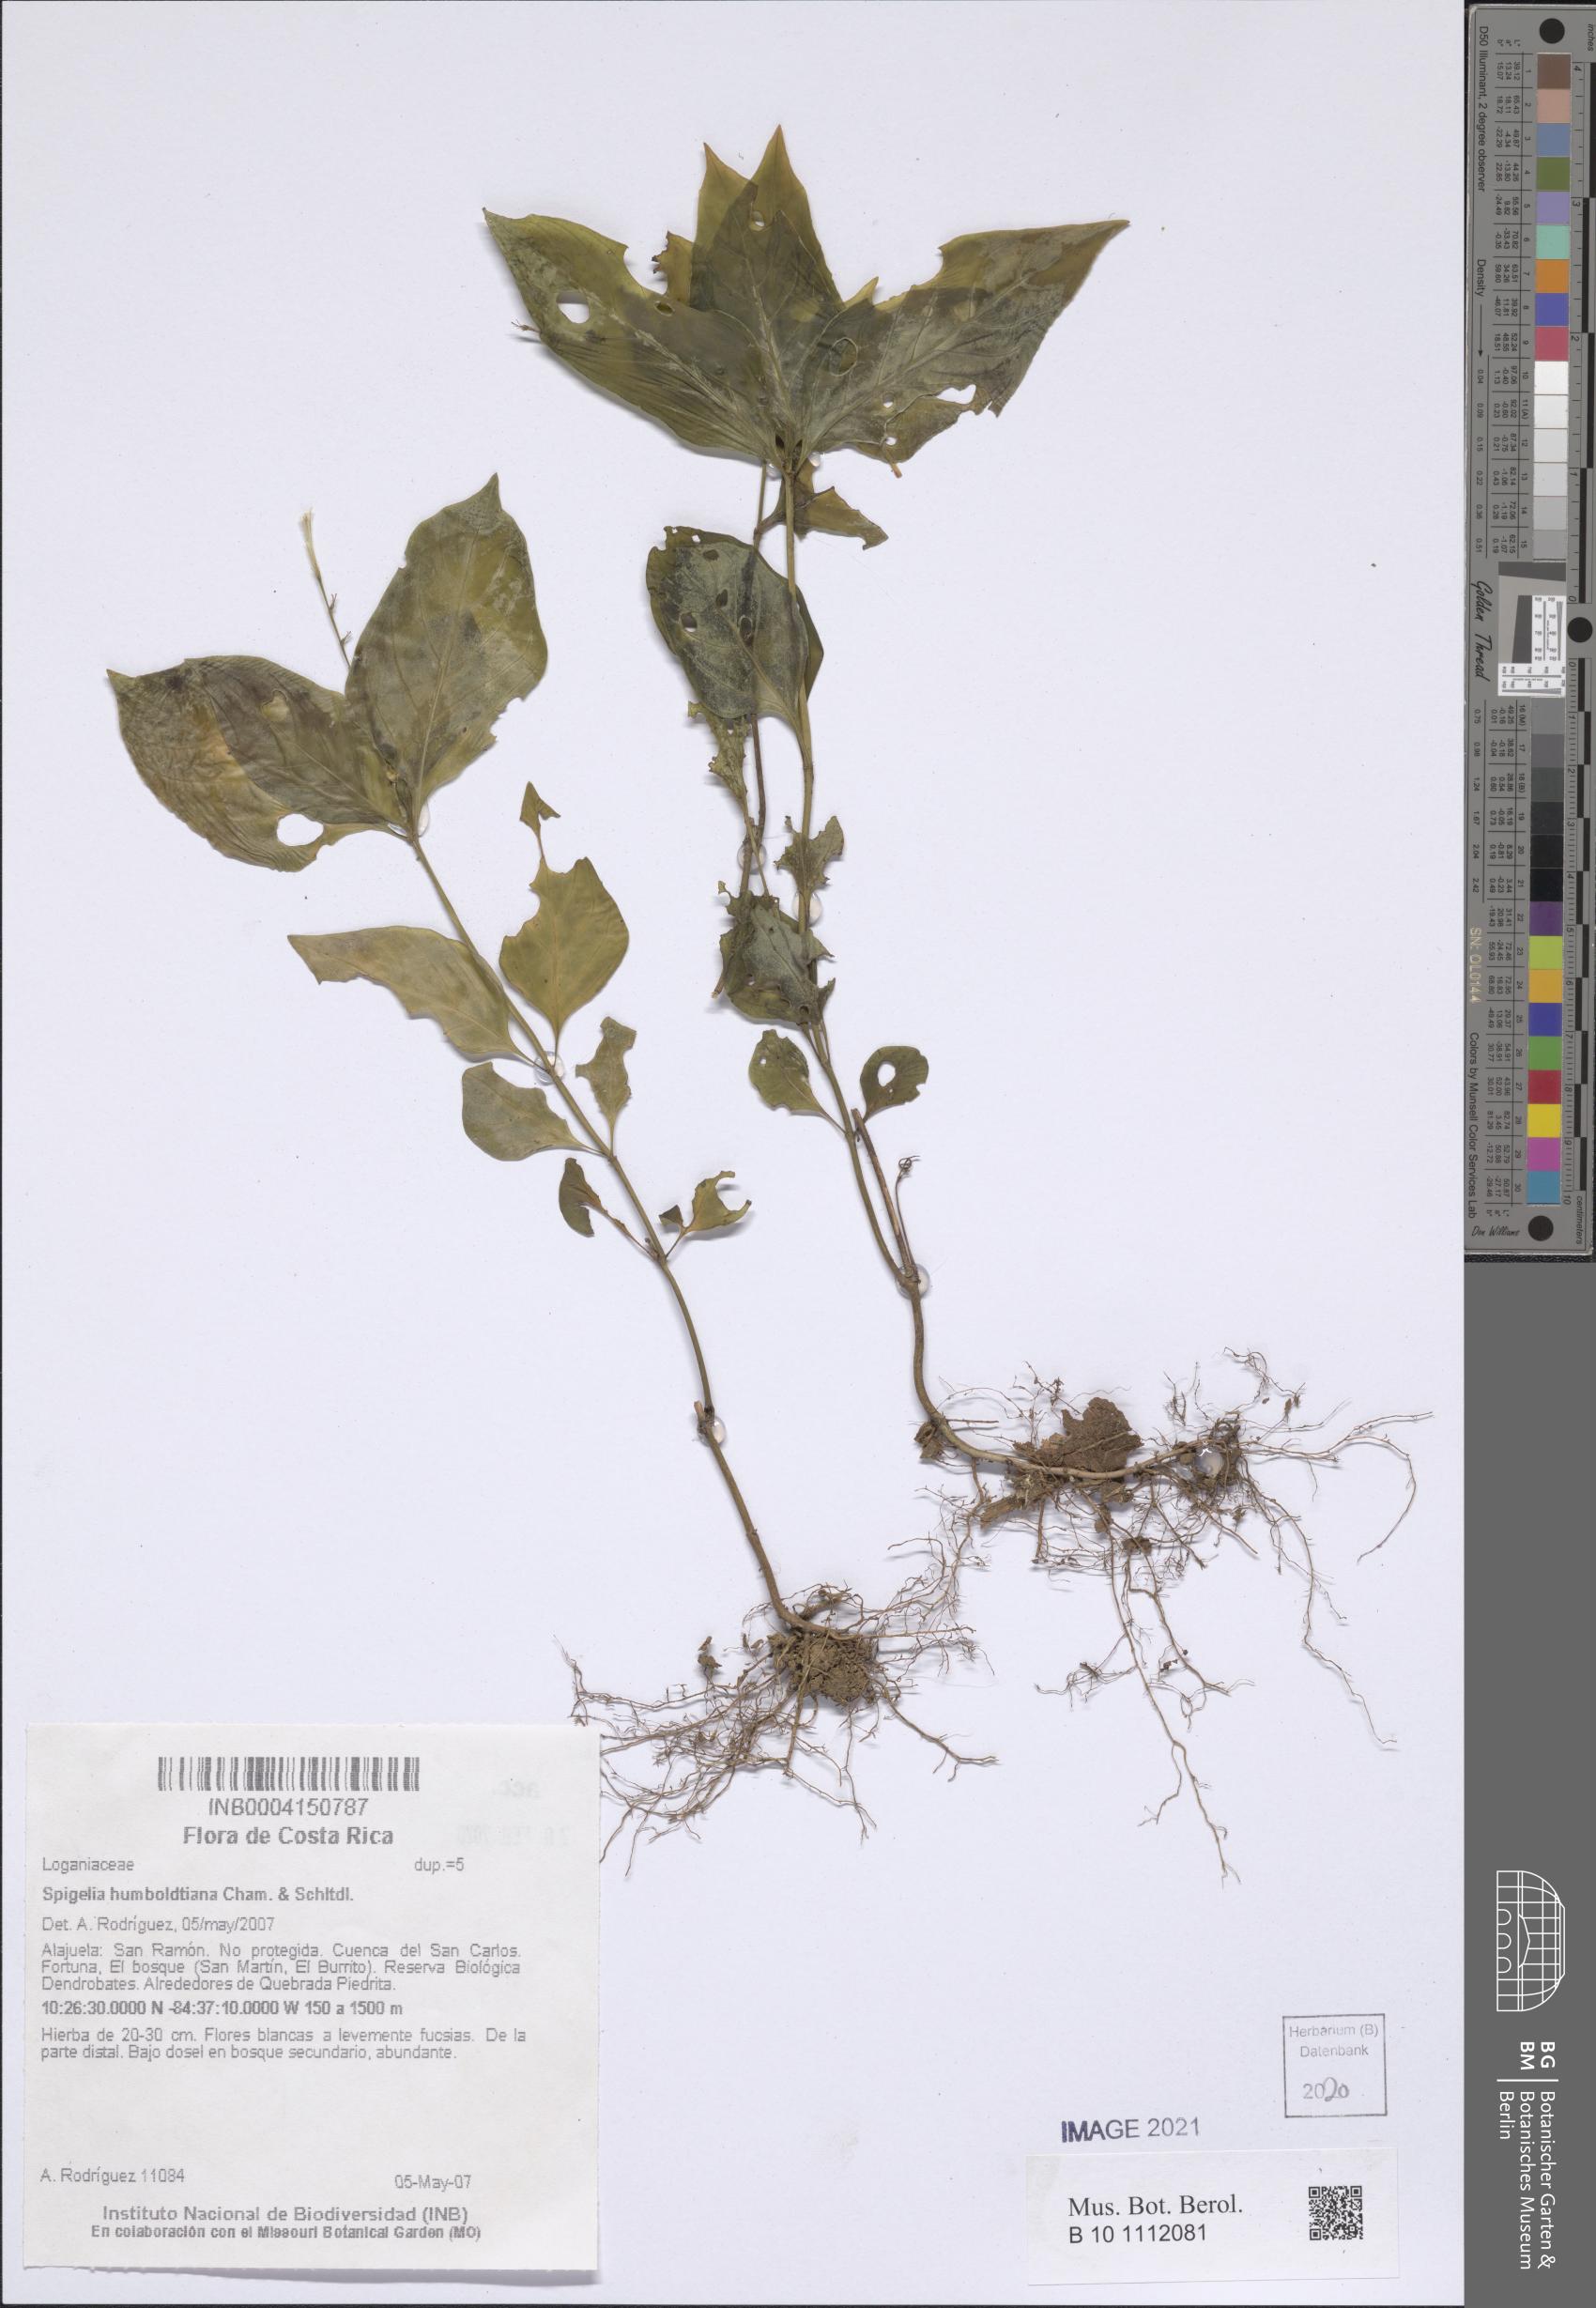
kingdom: Plantae
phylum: Tracheophyta
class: Magnoliopsida
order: Gentianales
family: Loganiaceae
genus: Spigelia
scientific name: Spigelia humboldtiana
